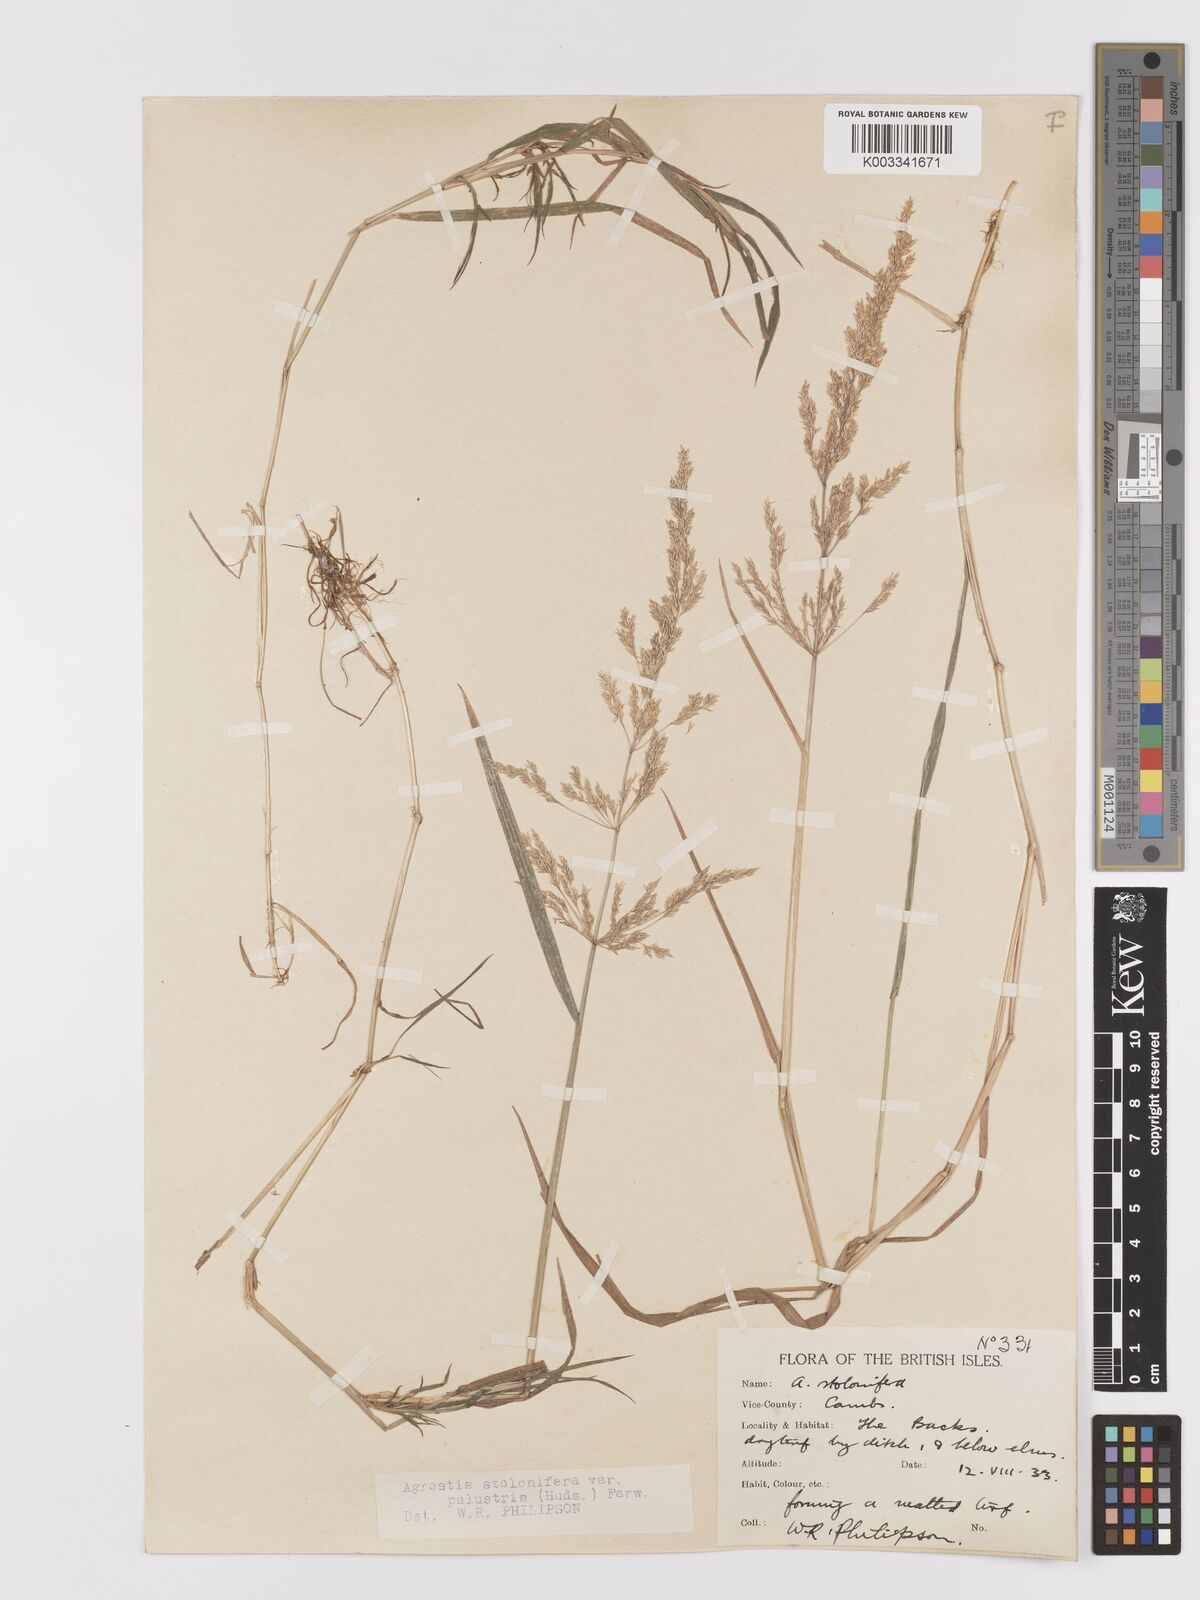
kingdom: Plantae
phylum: Tracheophyta
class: Liliopsida
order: Poales
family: Poaceae
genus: Agrostis
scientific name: Agrostis stolonifera
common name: Creeping bentgrass
